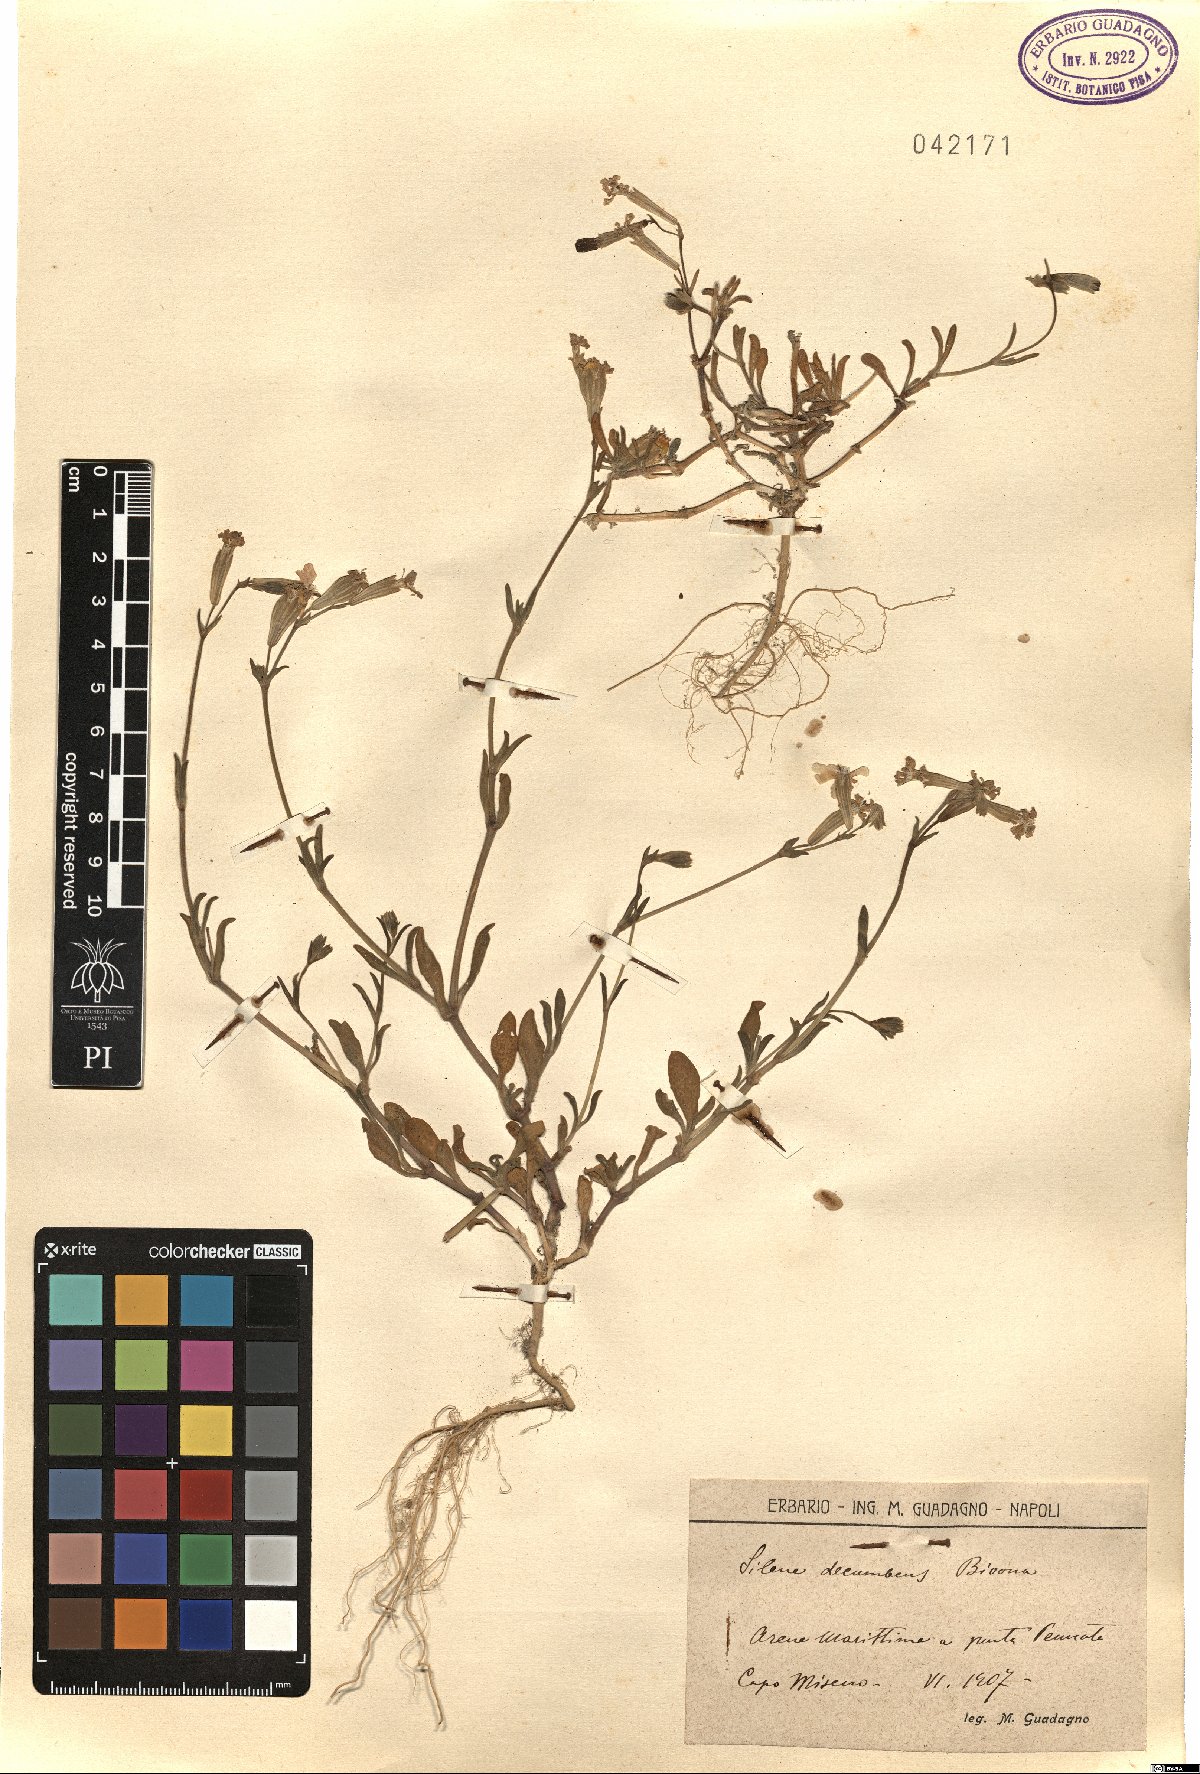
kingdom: Plantae
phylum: Tracheophyta
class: Magnoliopsida
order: Caryophyllales
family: Caryophyllaceae
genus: Silene
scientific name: Silene colorata
